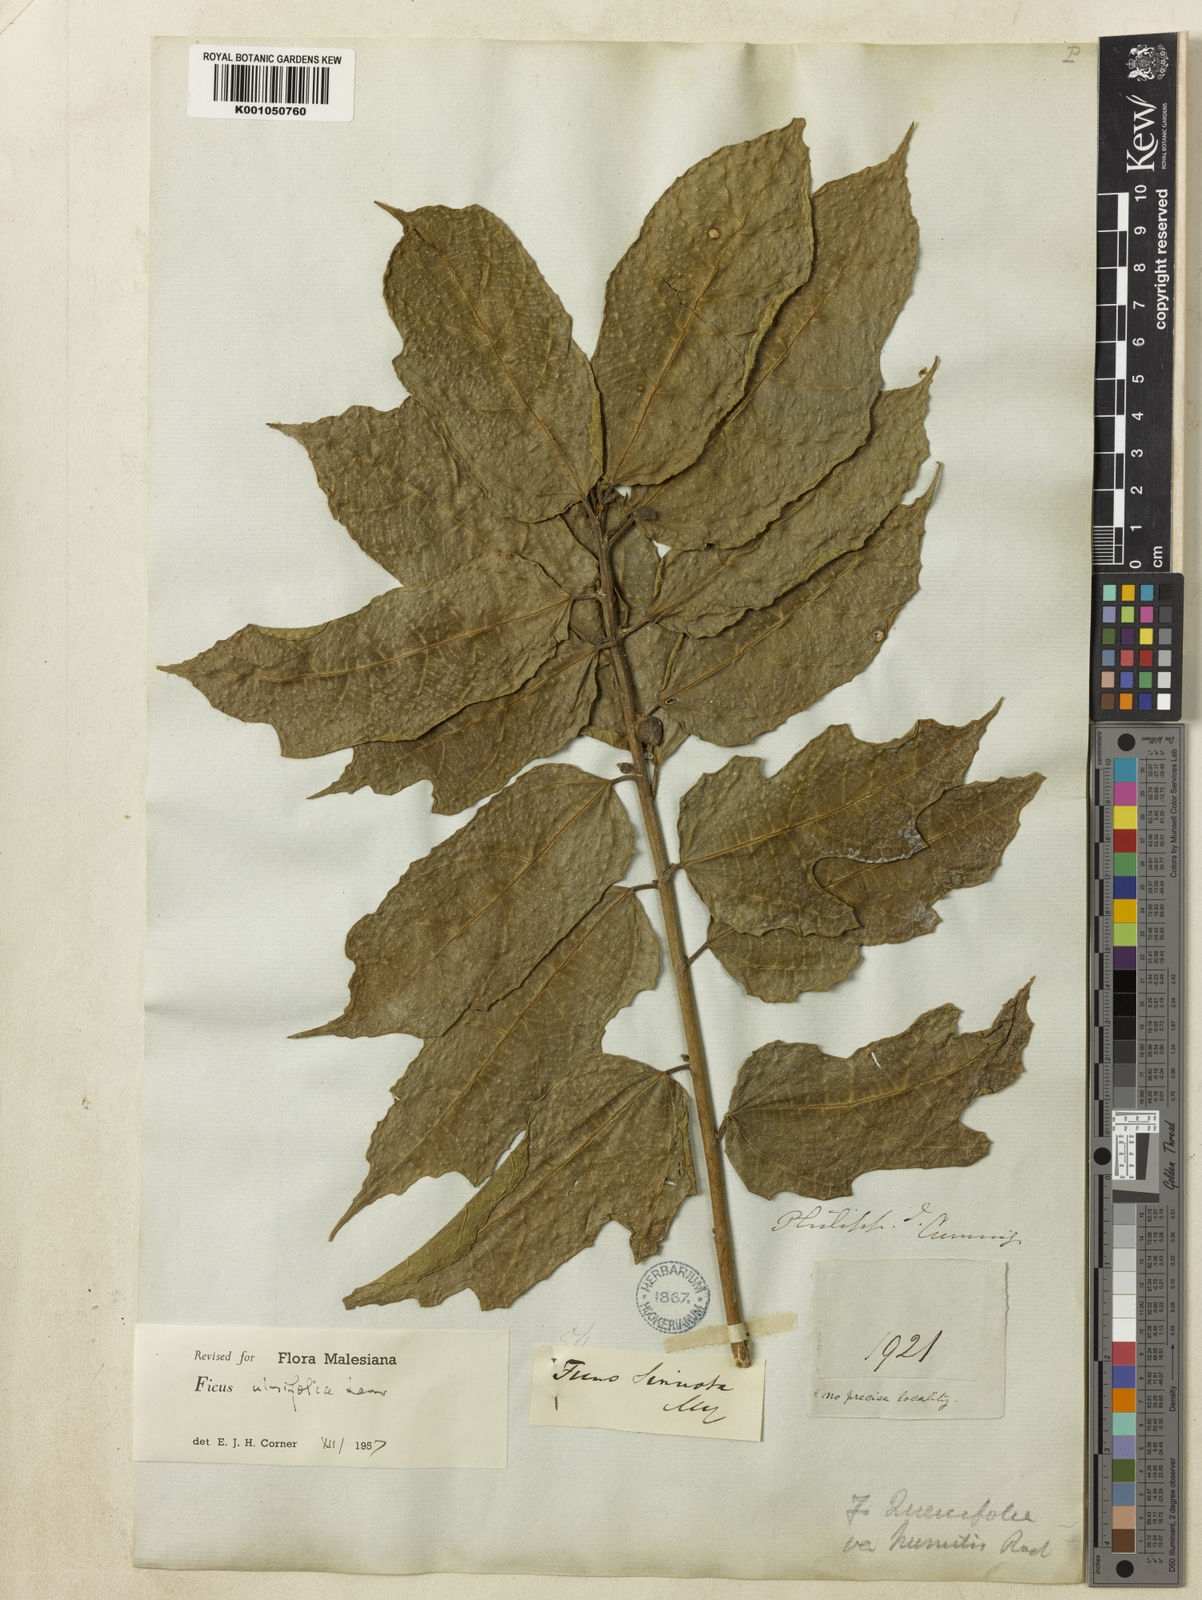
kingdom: Plantae
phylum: Tracheophyta
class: Magnoliopsida
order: Rosales
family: Moraceae
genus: Ficus
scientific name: Ficus ulmifolia
